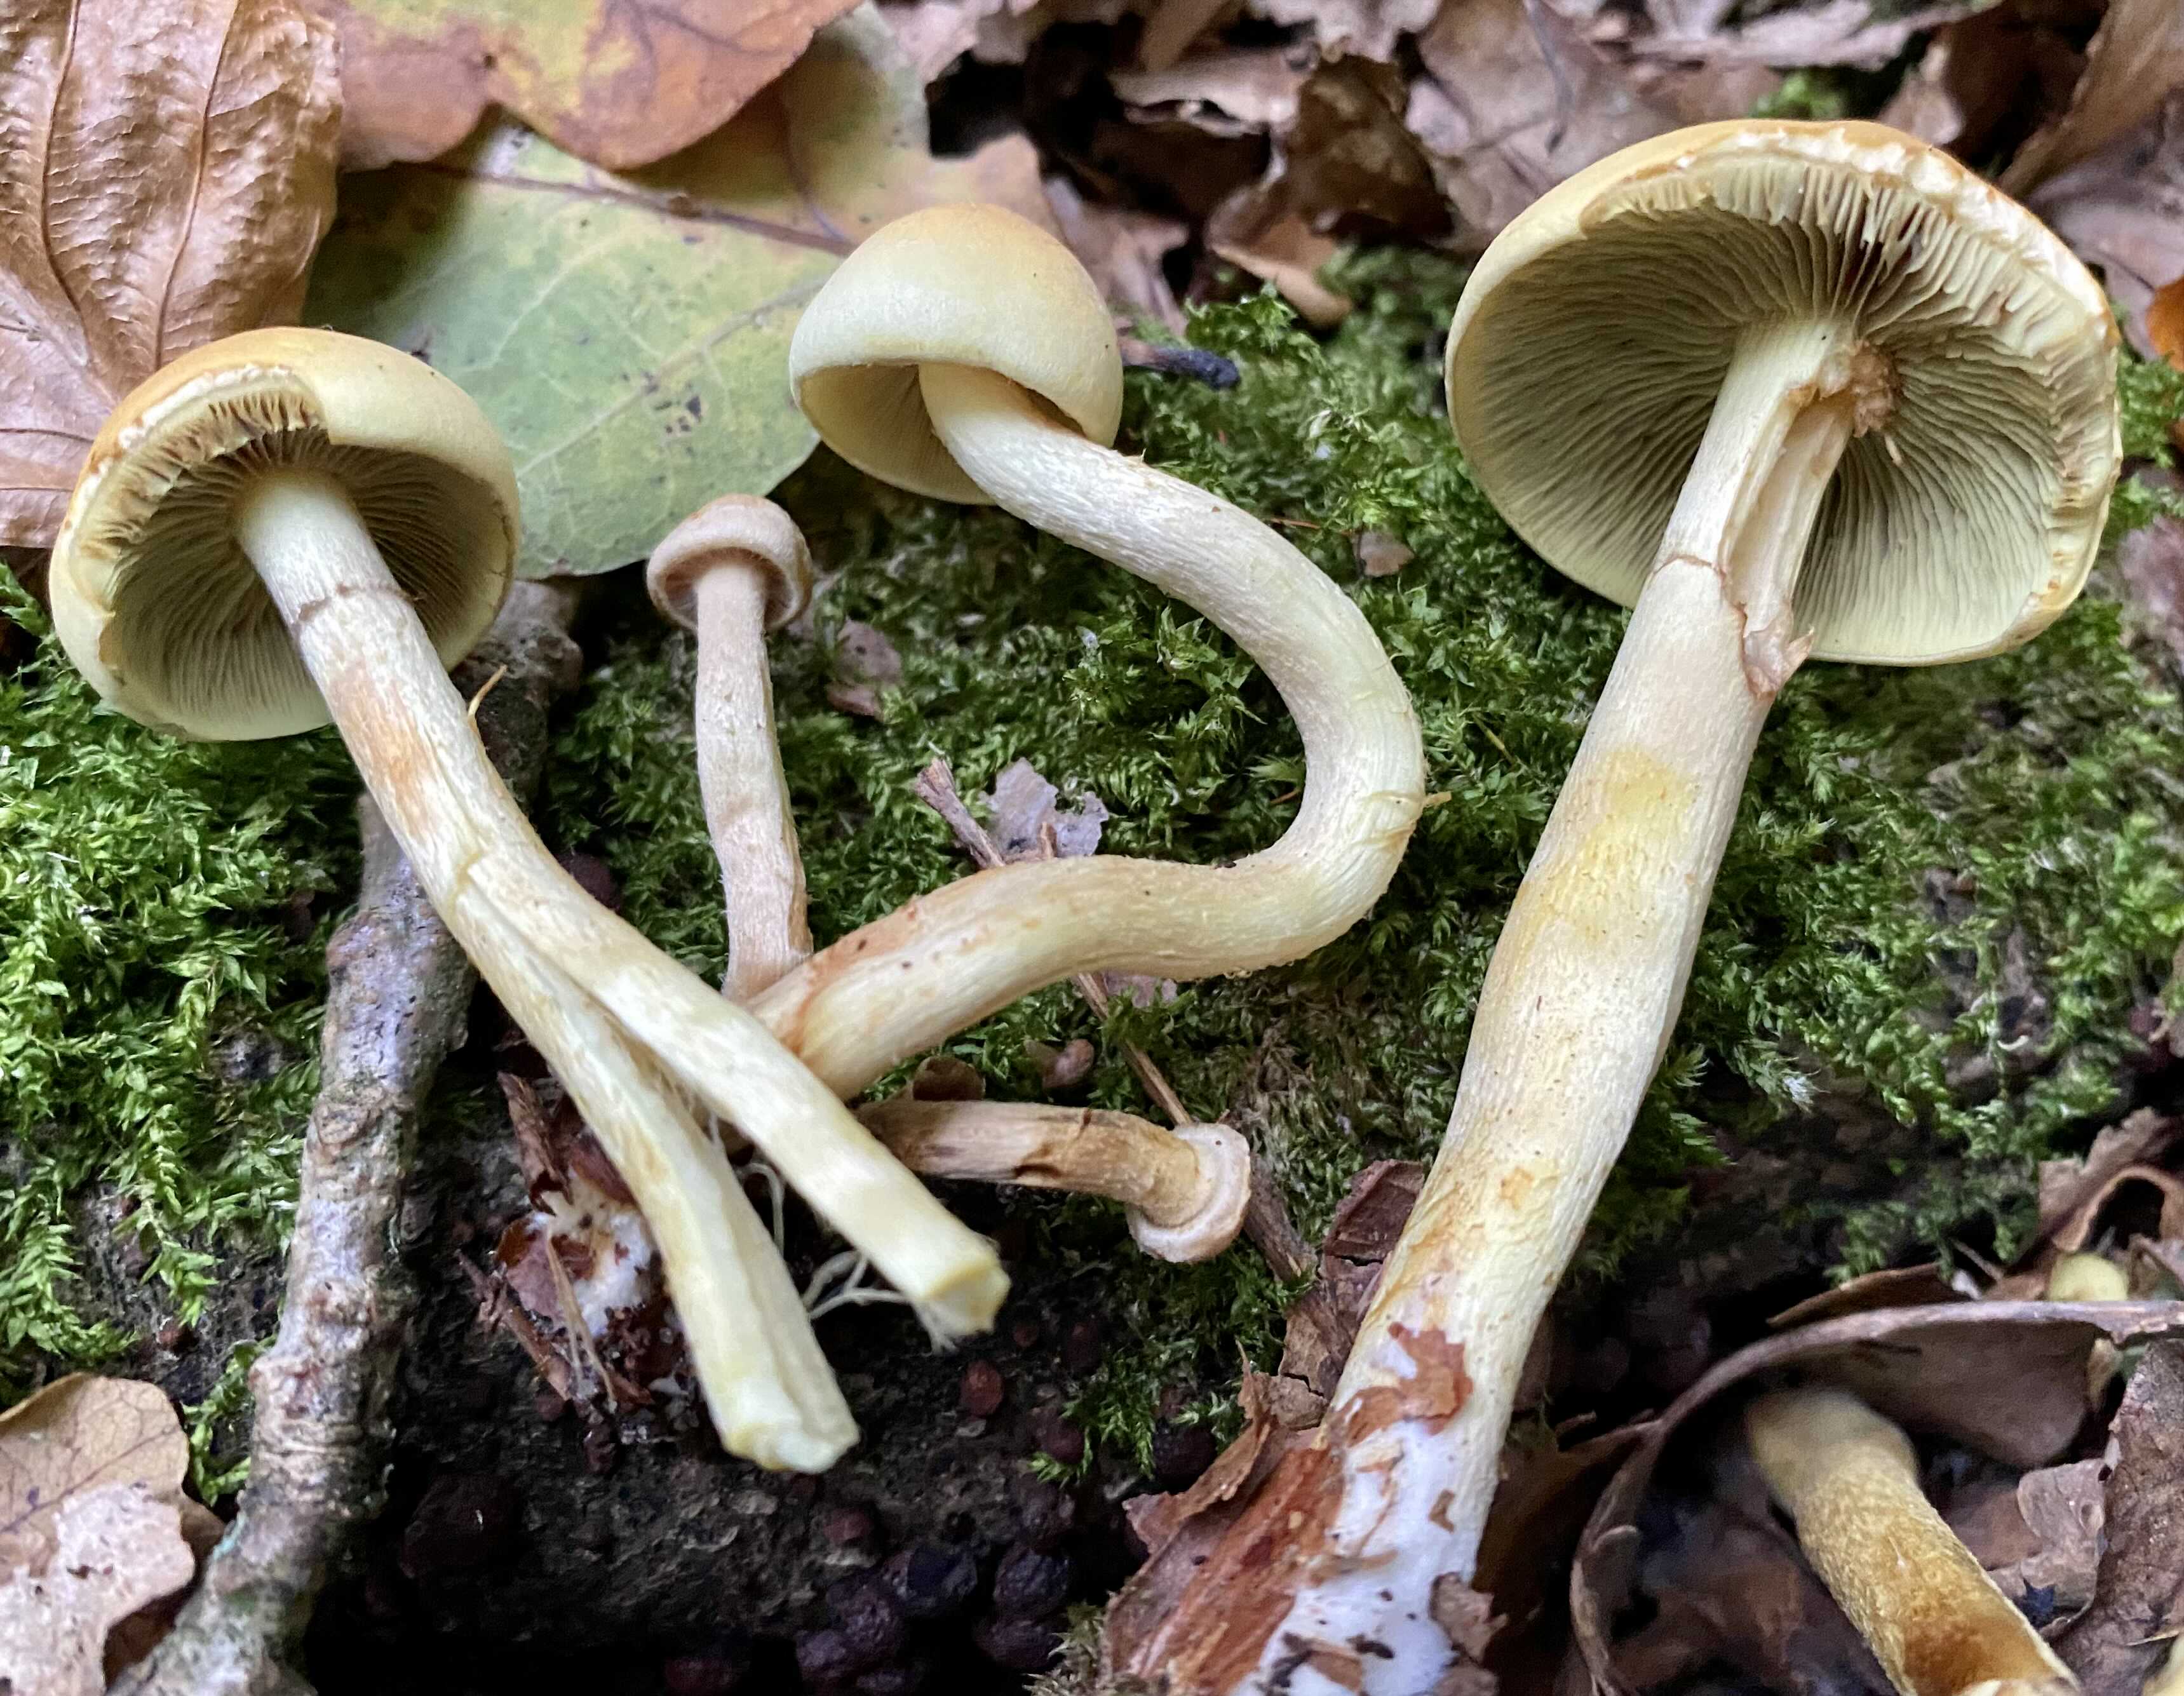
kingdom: Fungi
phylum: Basidiomycota
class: Agaricomycetes
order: Agaricales
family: Strophariaceae
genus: Hypholoma
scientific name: Hypholoma fasciculare
